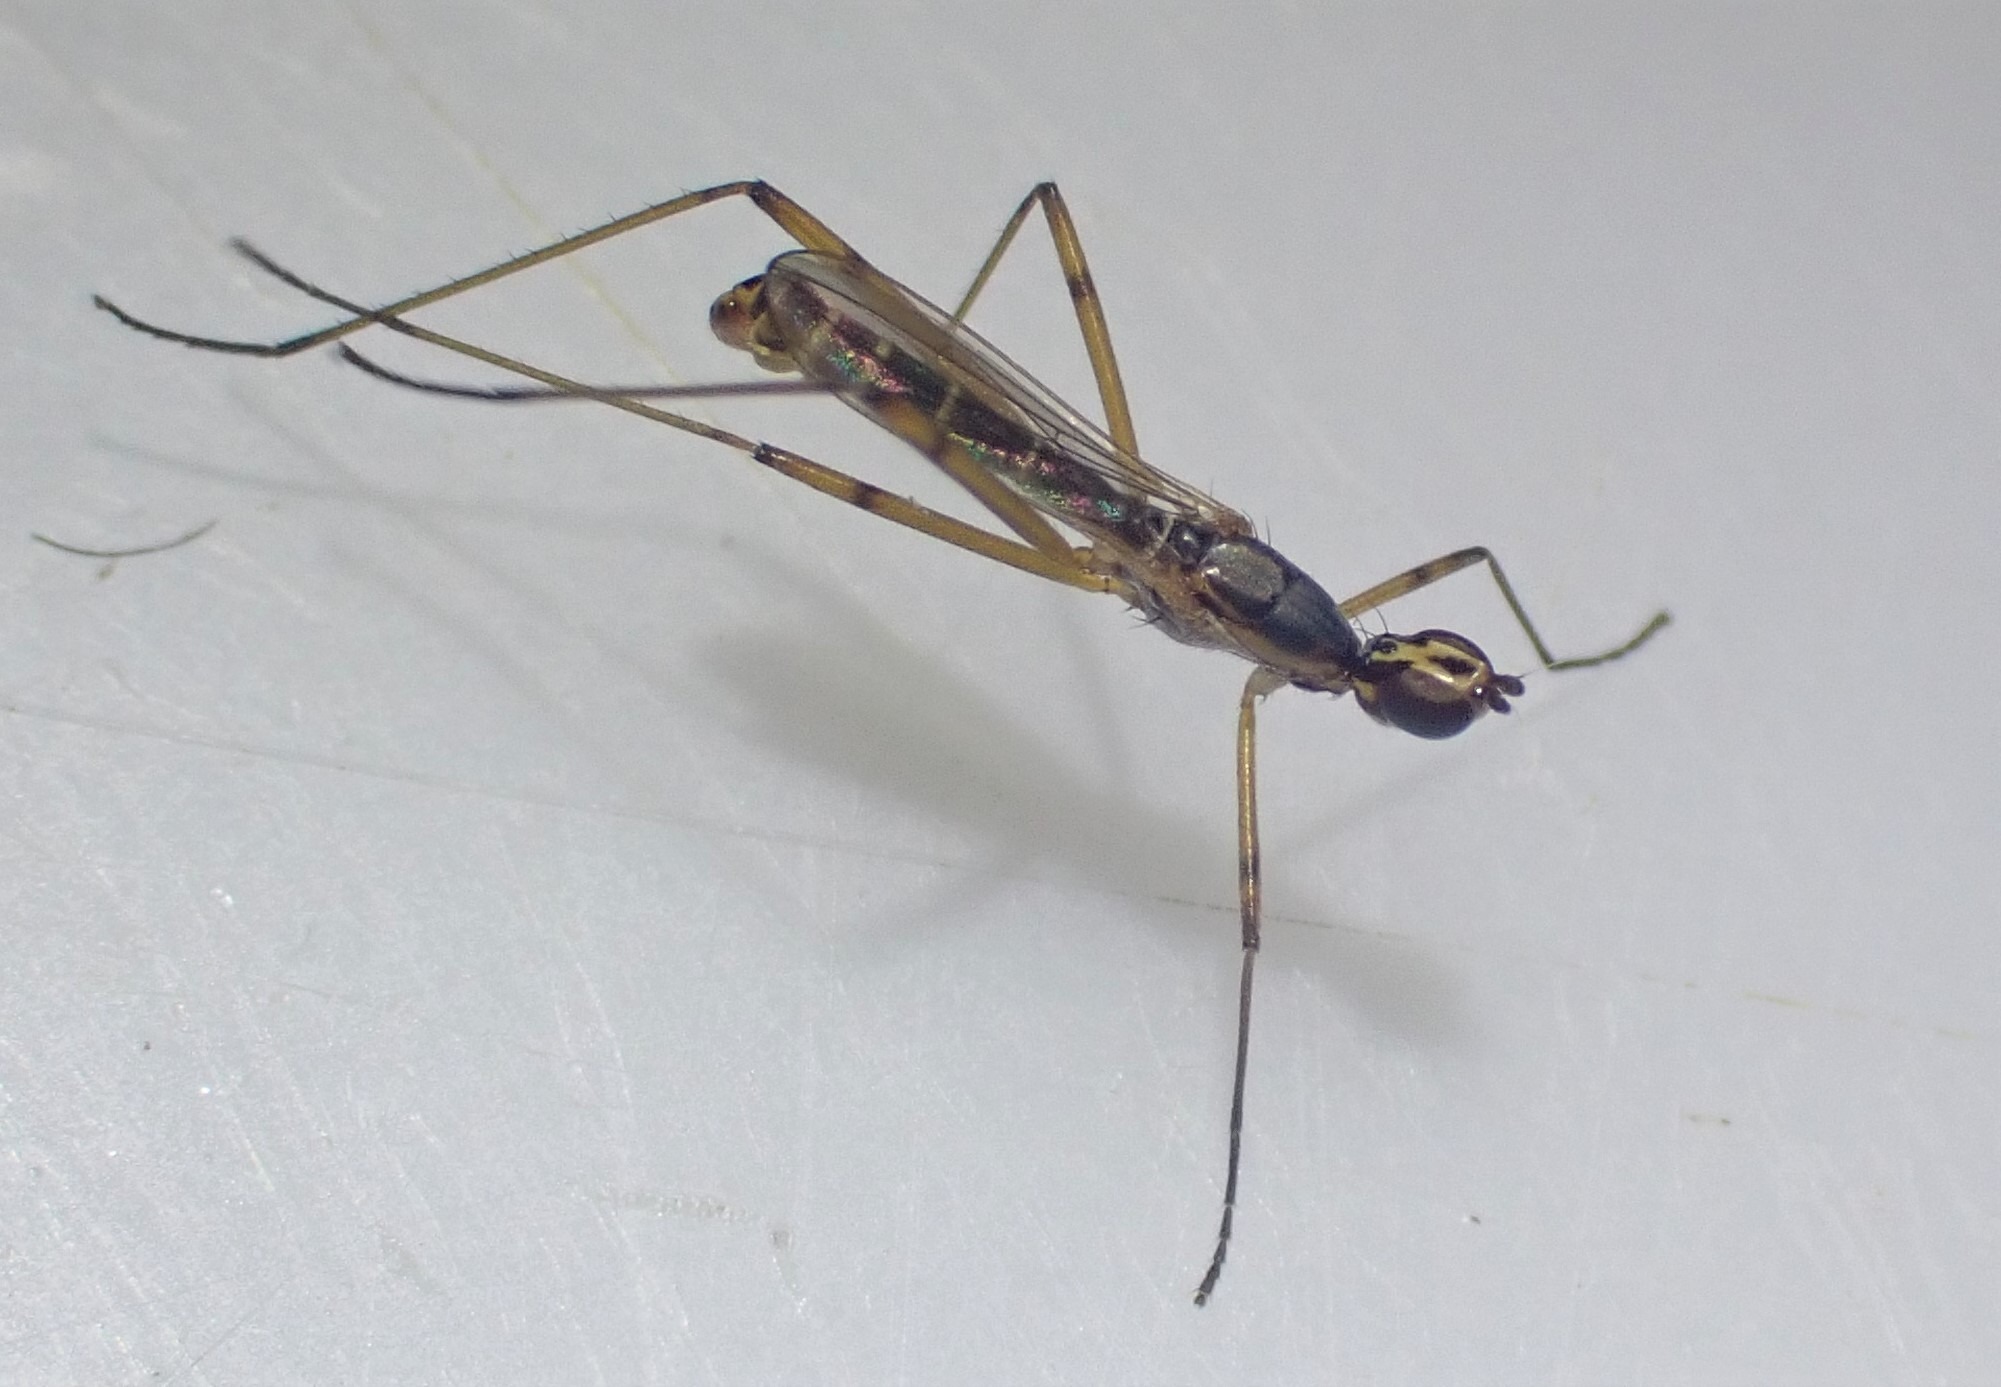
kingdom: Animalia
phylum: Arthropoda
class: Insecta
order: Diptera
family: Micropezidae
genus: Micropeza
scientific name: Micropeza lateralis
